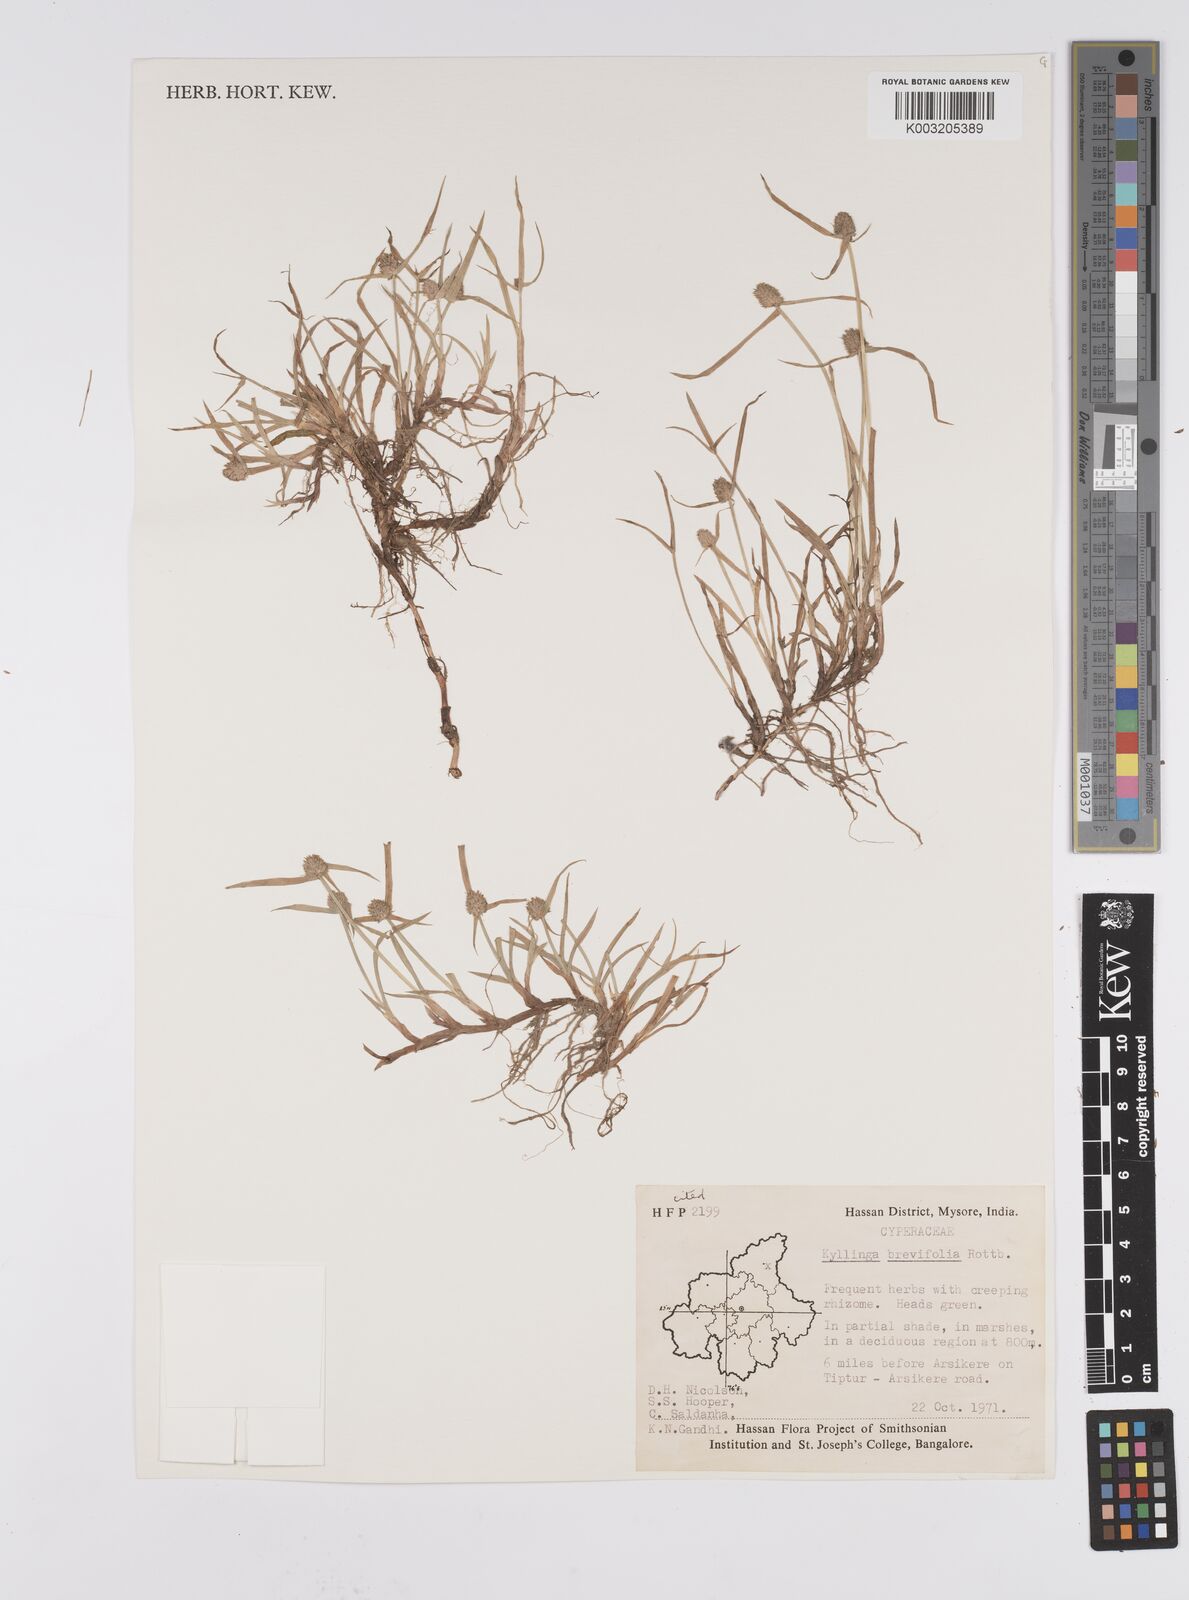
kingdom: Plantae
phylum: Tracheophyta
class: Liliopsida
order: Poales
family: Cyperaceae
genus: Cyperus
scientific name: Cyperus brevifolius
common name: Globe kyllinga
